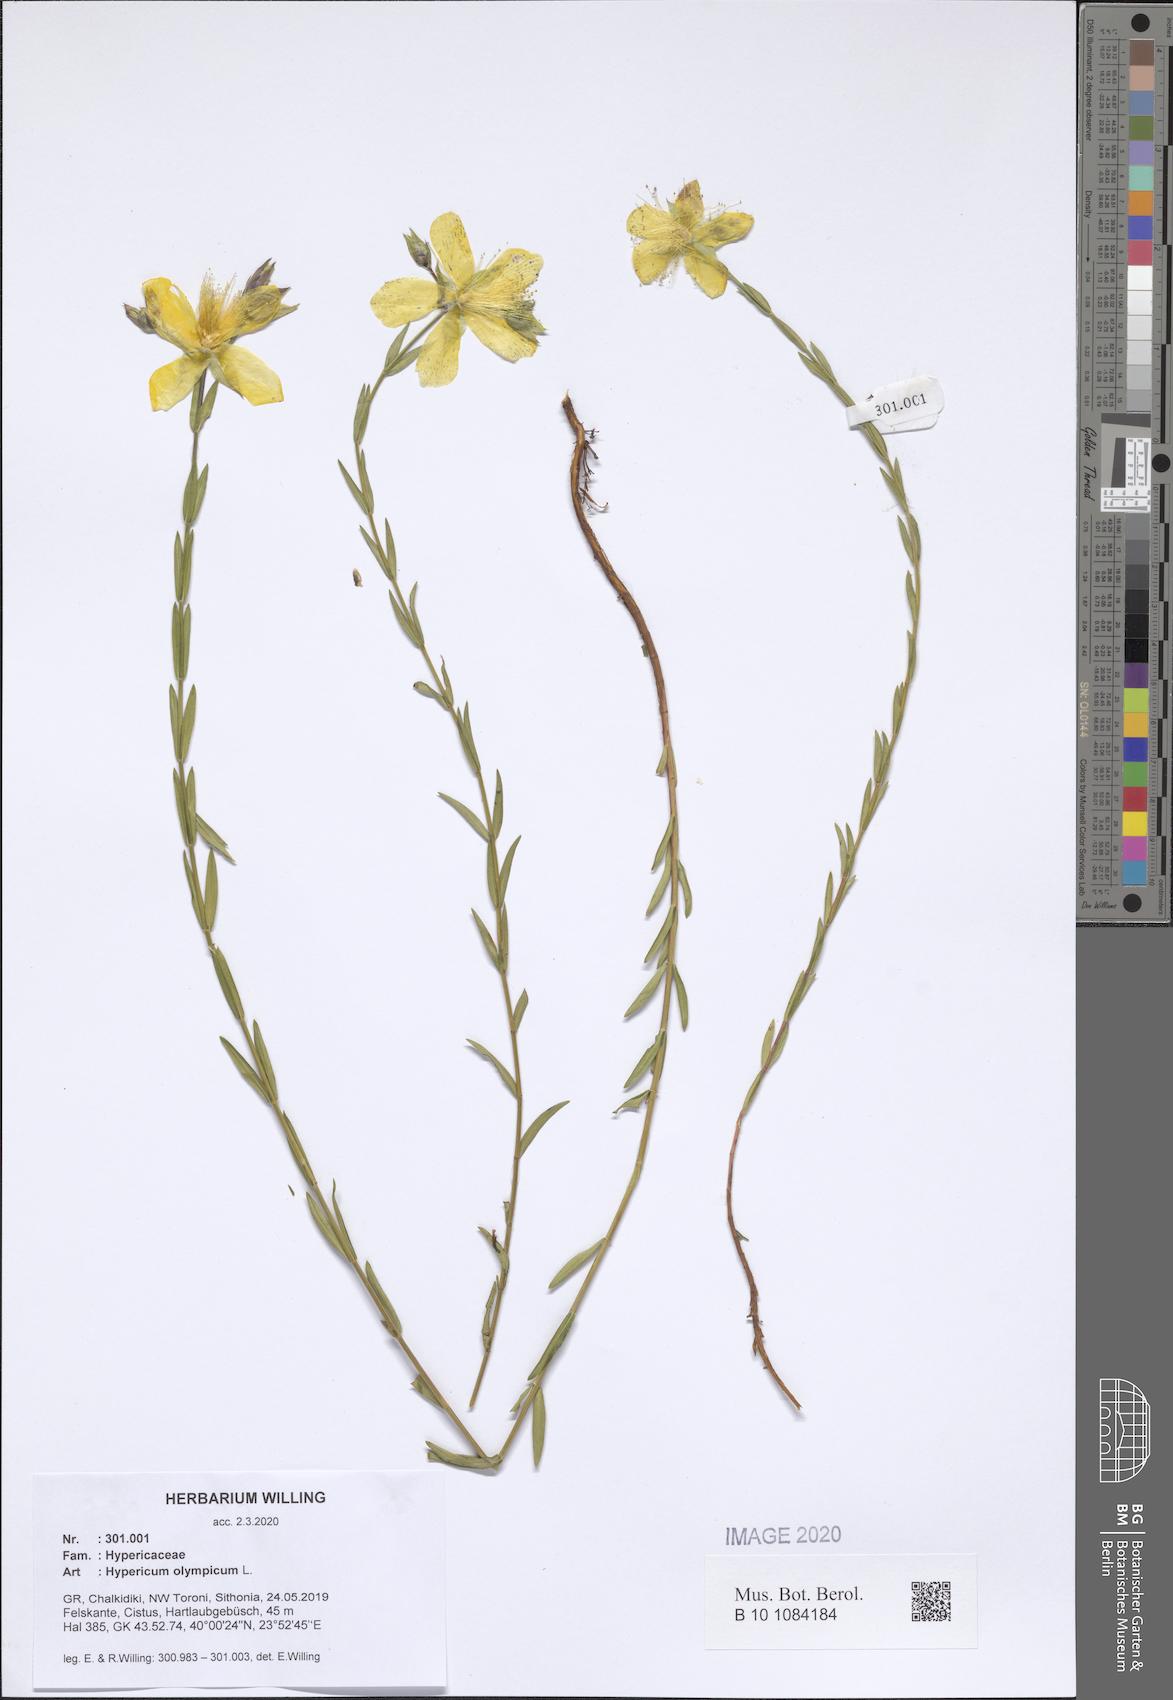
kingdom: Plantae
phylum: Tracheophyta
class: Magnoliopsida
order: Malpighiales
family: Hypericaceae
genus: Hypericum
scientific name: Hypericum olympicum
